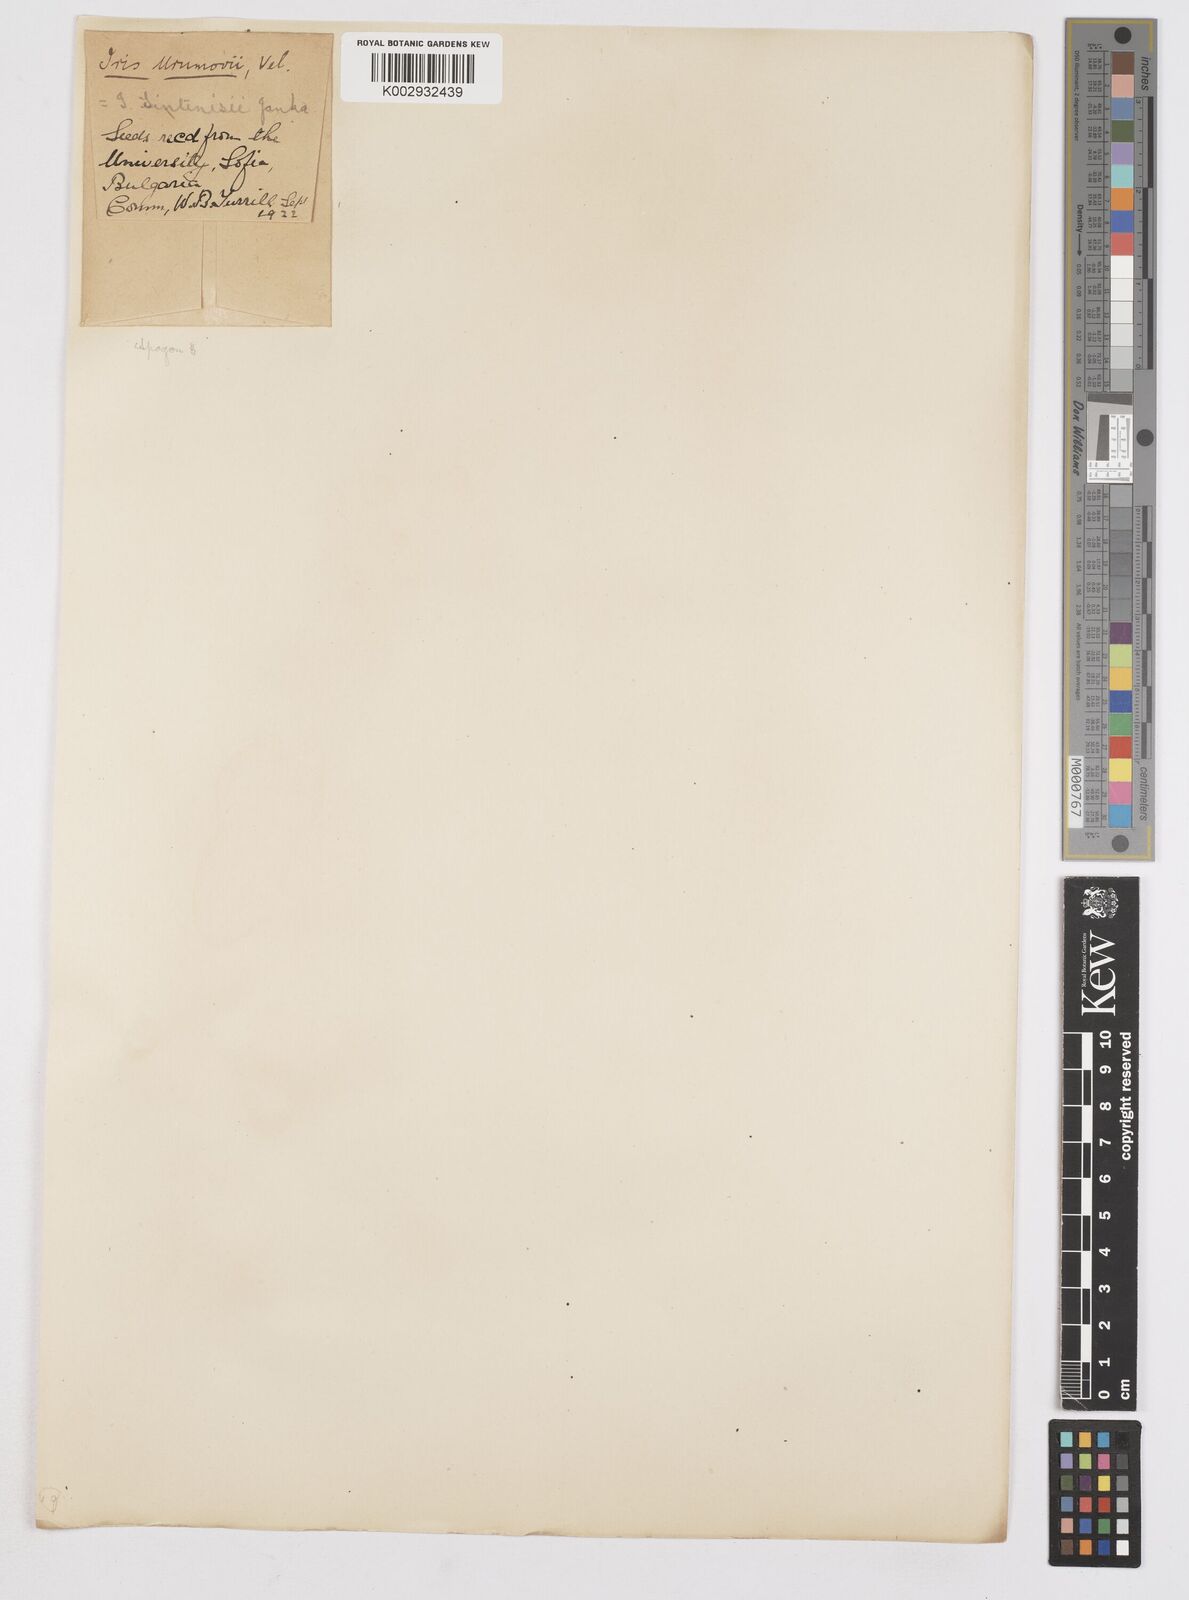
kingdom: Plantae
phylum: Tracheophyta
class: Liliopsida
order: Asparagales
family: Iridaceae
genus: Iris
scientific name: Iris sintenisii
